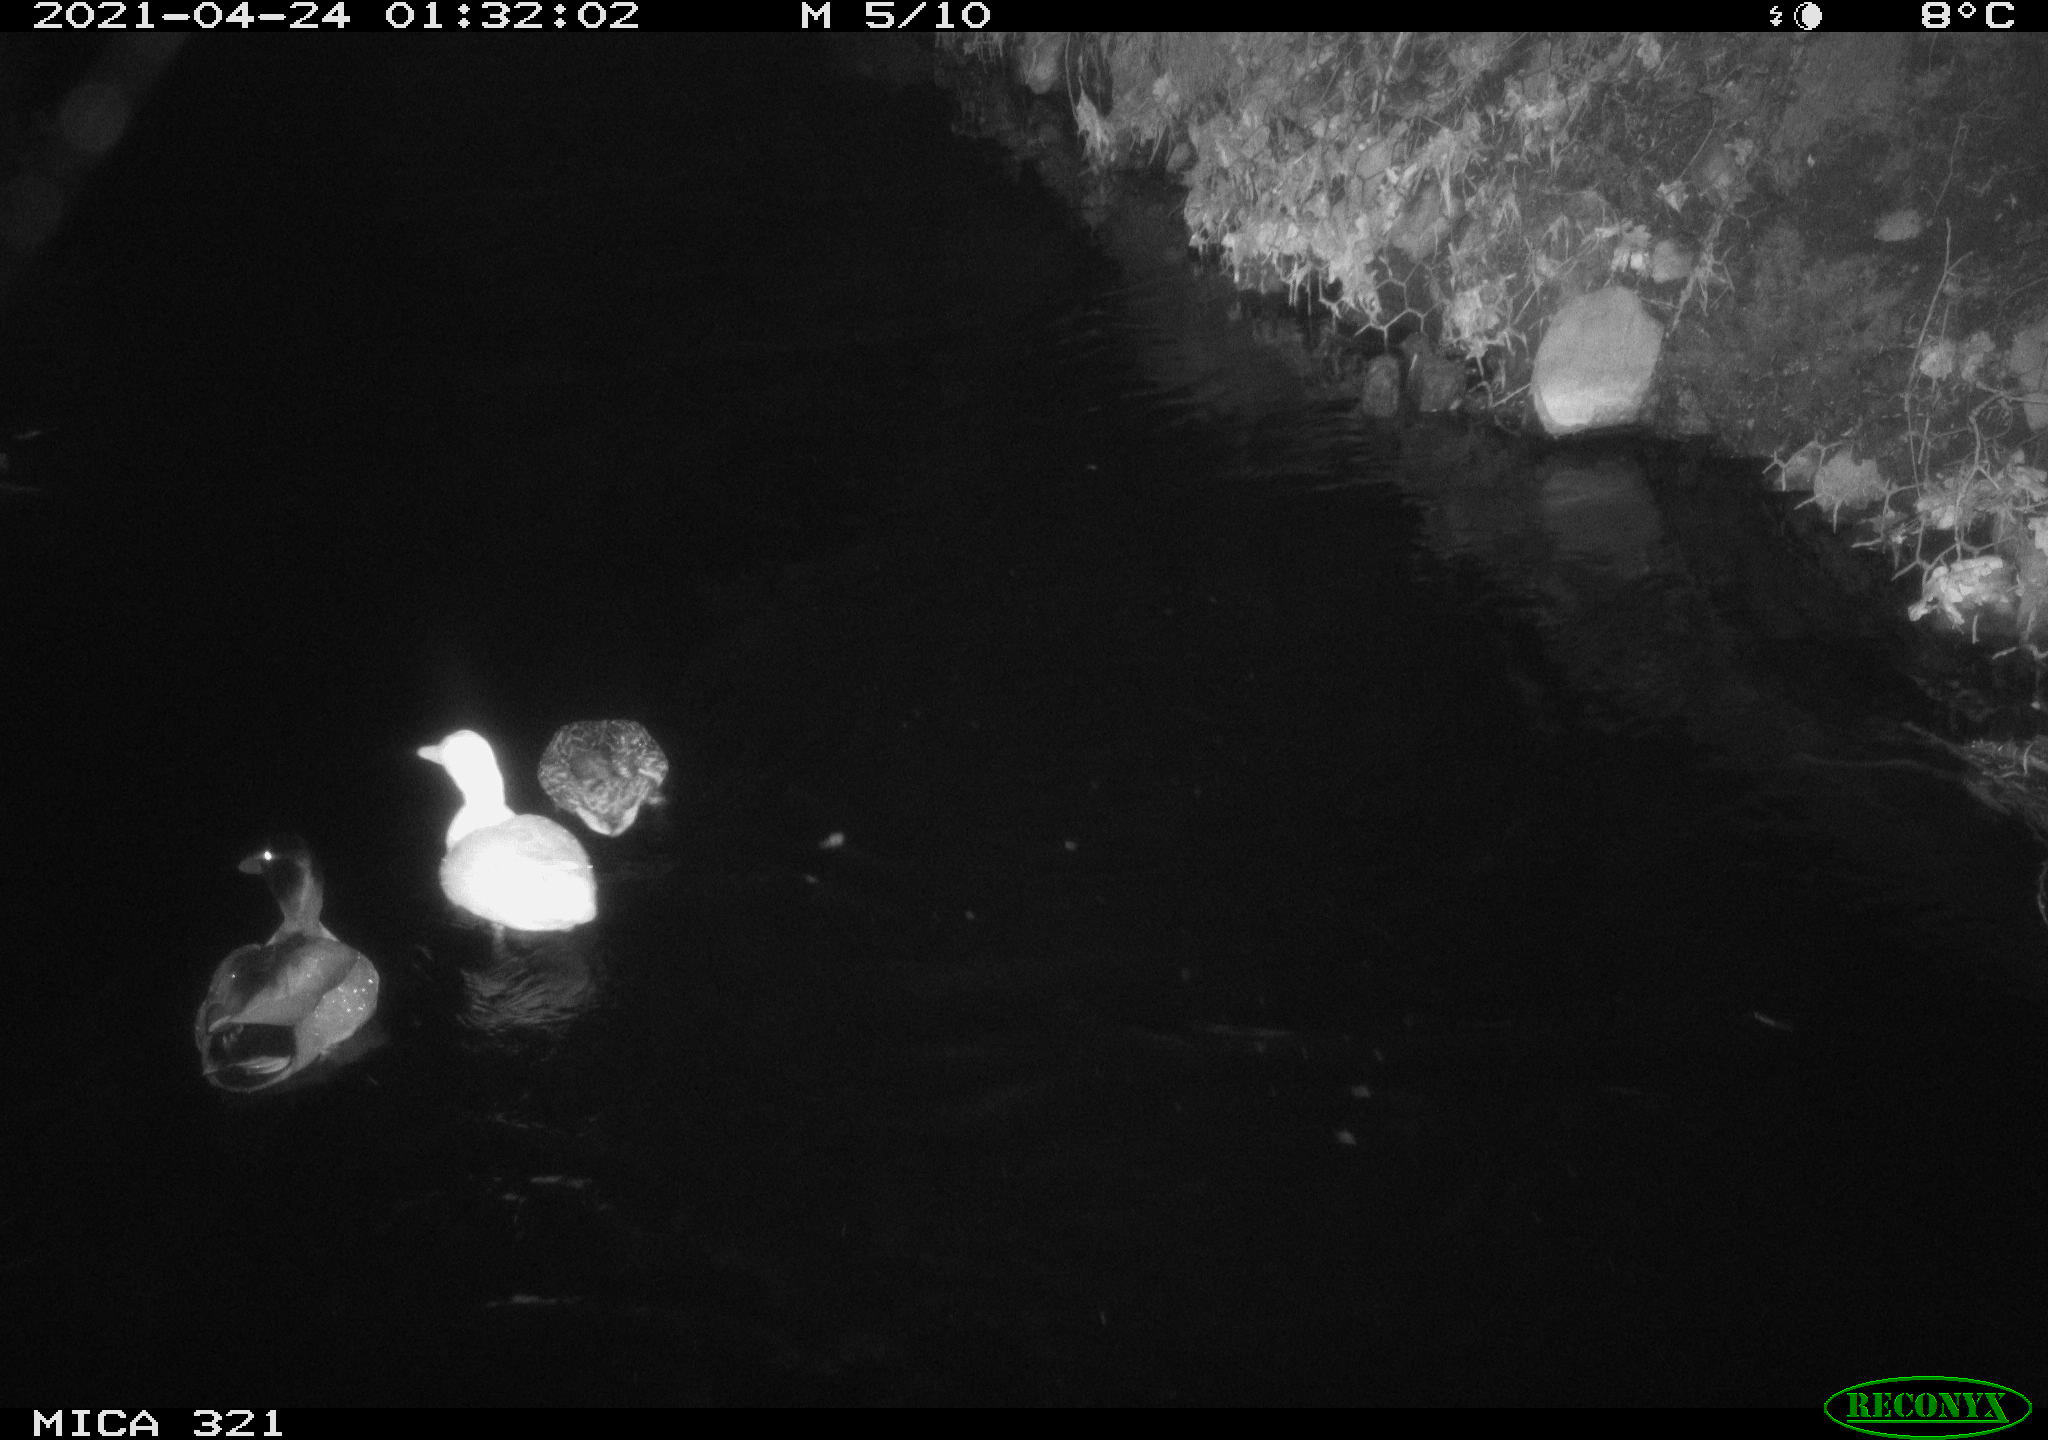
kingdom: Animalia
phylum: Chordata
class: Aves
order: Anseriformes
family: Anatidae
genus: Anas
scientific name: Anas
